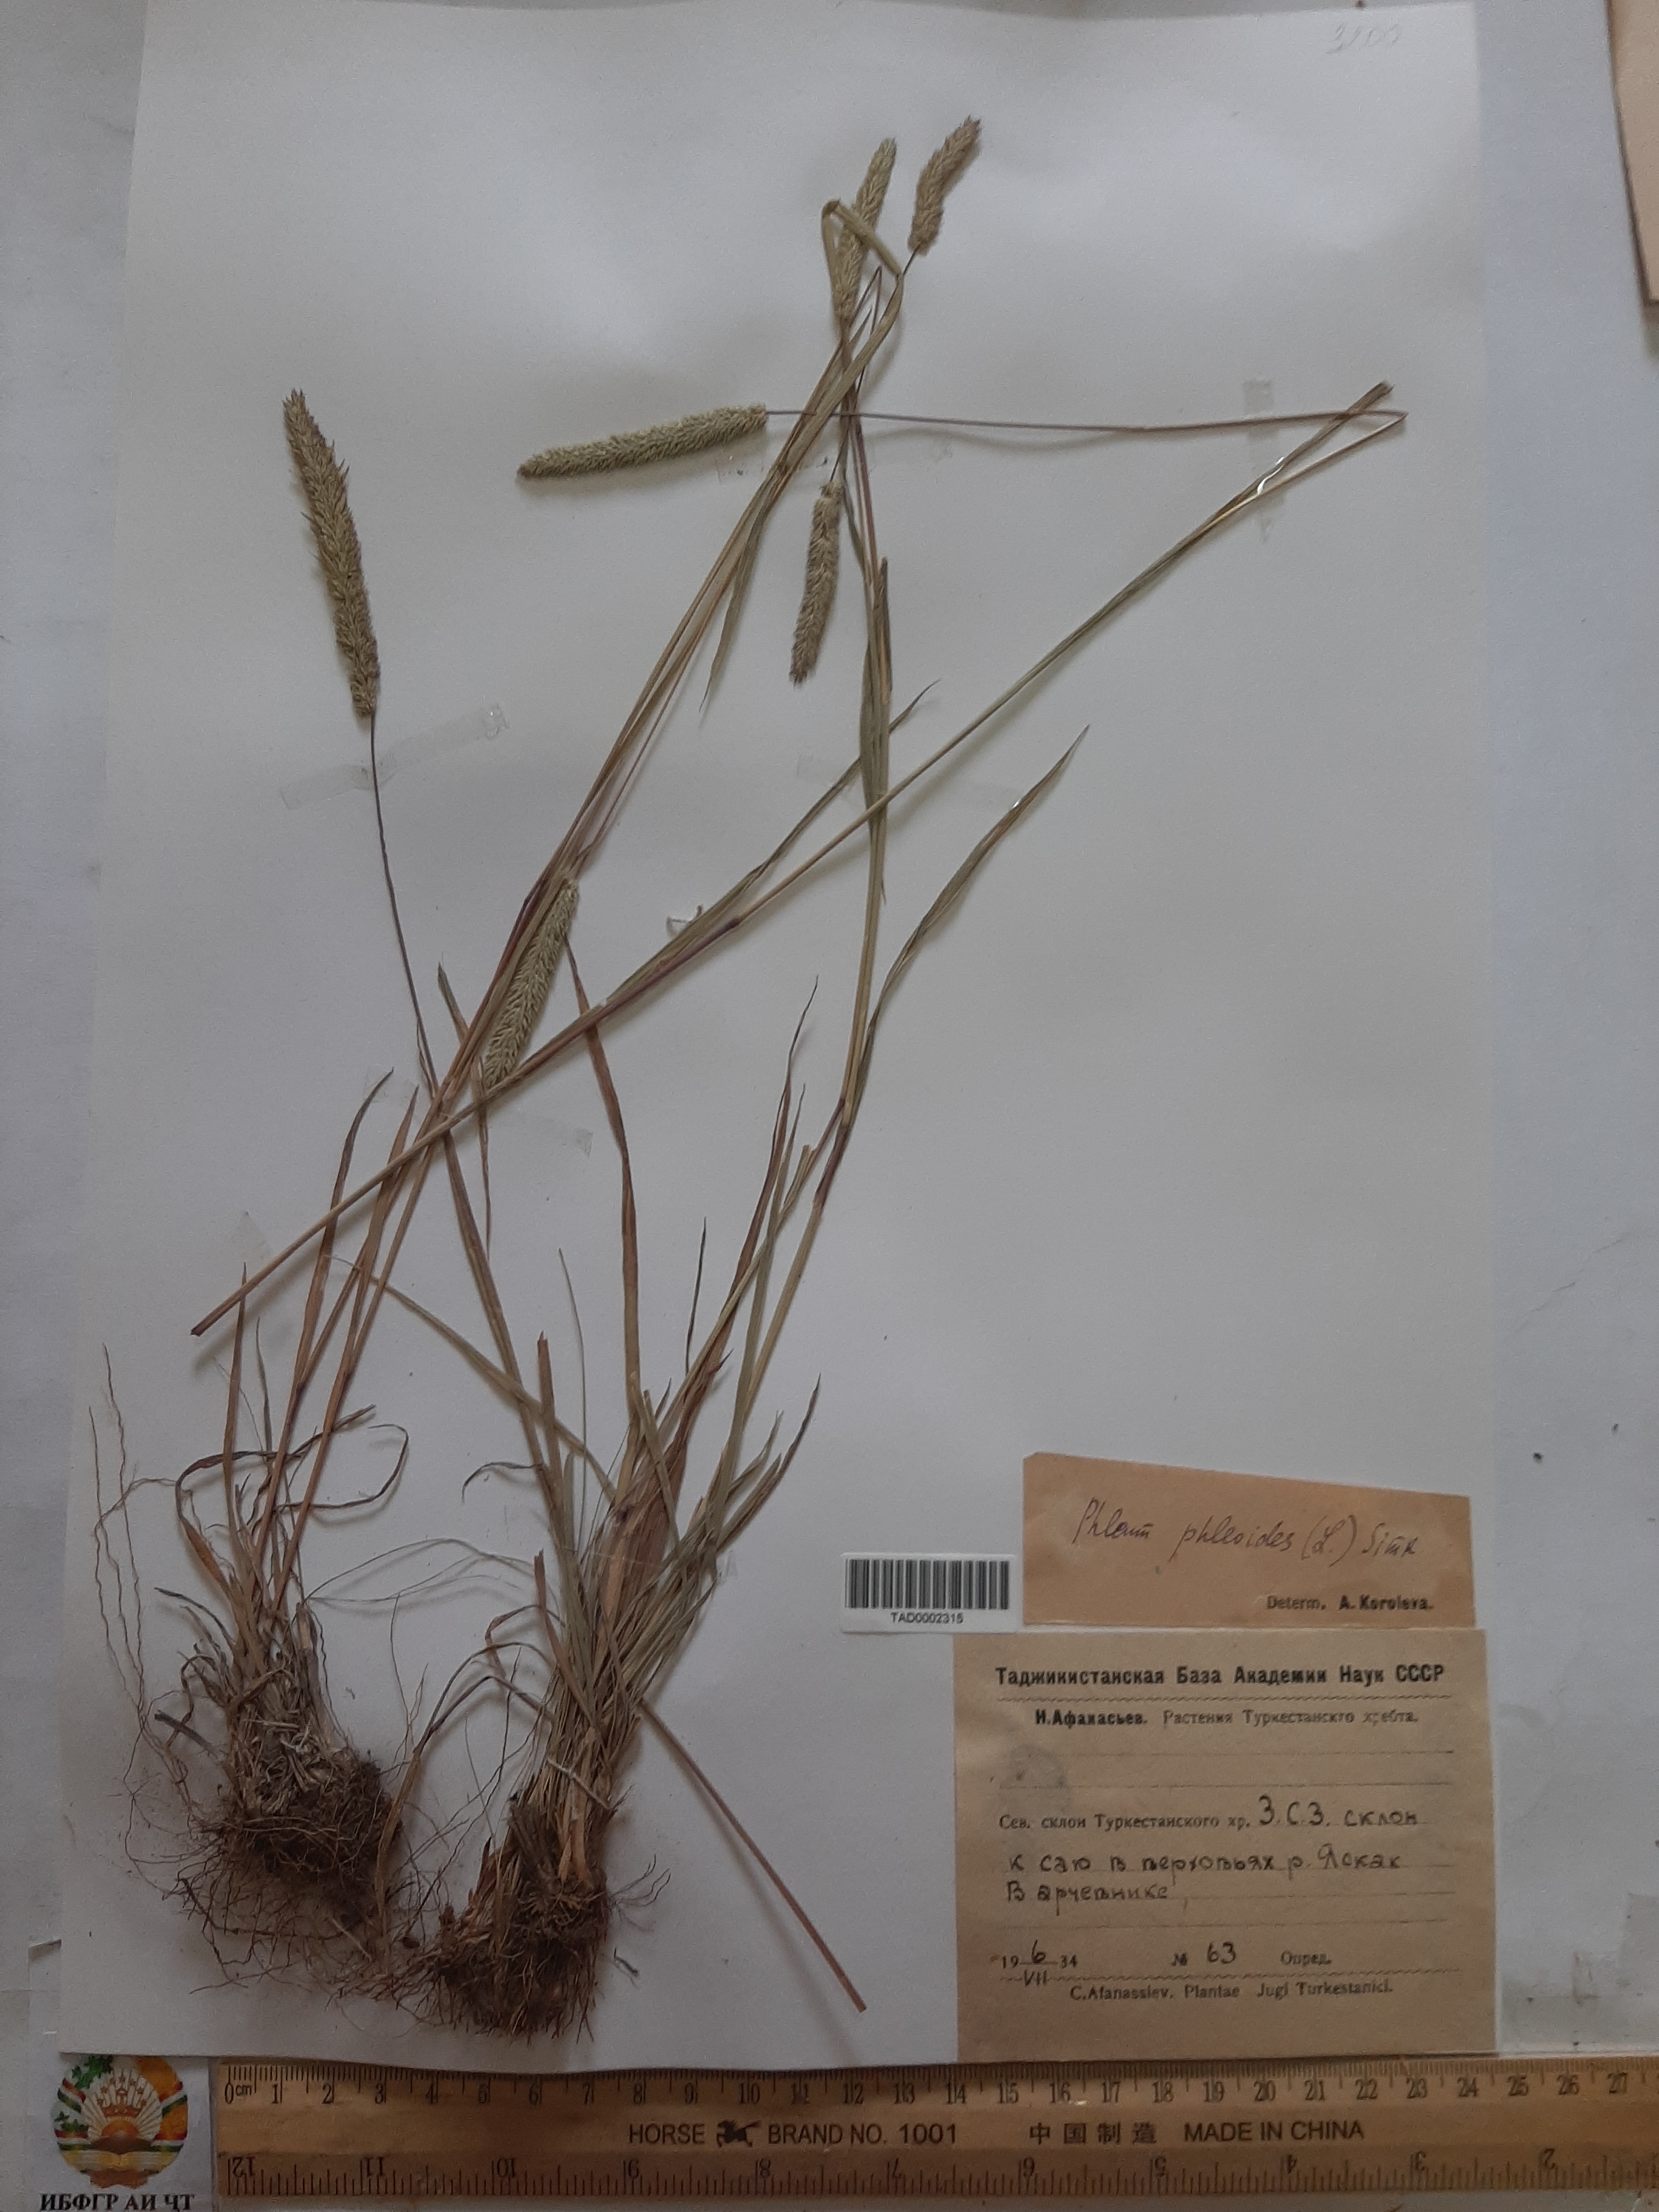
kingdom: Plantae
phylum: Tracheophyta
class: Liliopsida
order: Poales
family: Poaceae
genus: Phleum
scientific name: Phleum phleoides
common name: Purple-stem cat's-tail
